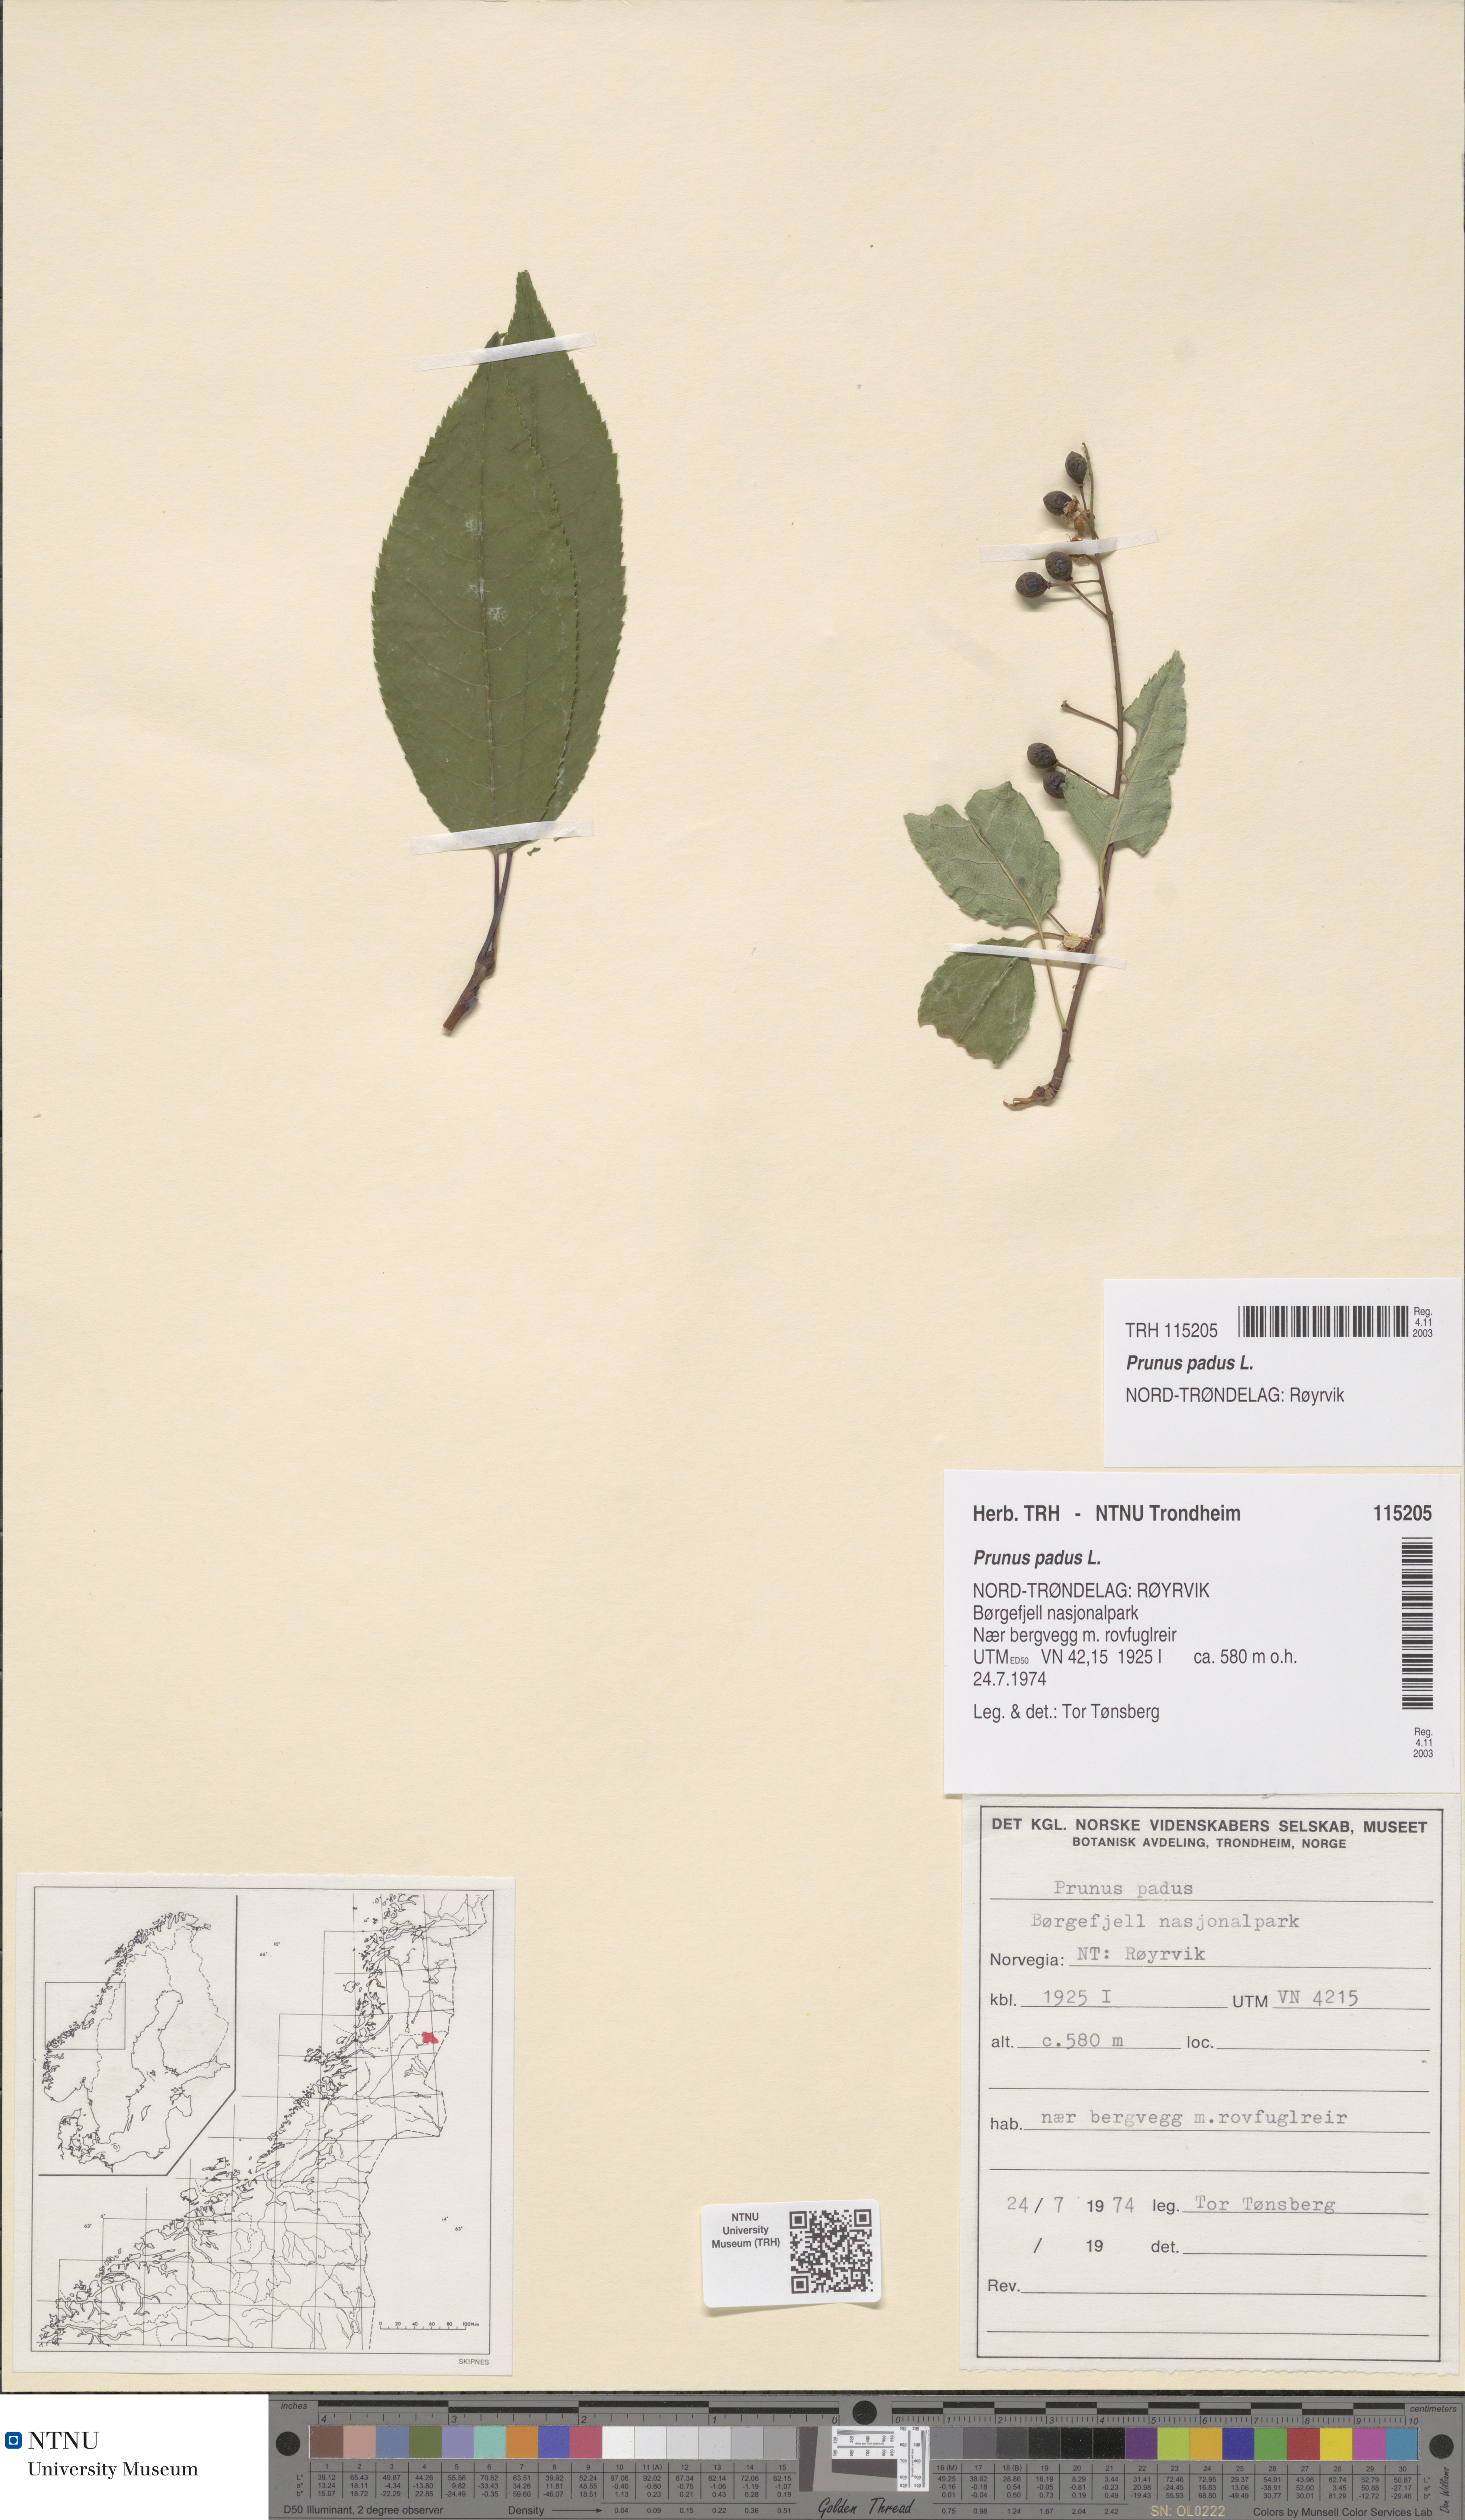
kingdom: Plantae
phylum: Tracheophyta
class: Magnoliopsida
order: Rosales
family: Rosaceae
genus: Prunus
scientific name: Prunus padus
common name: Bird cherry
